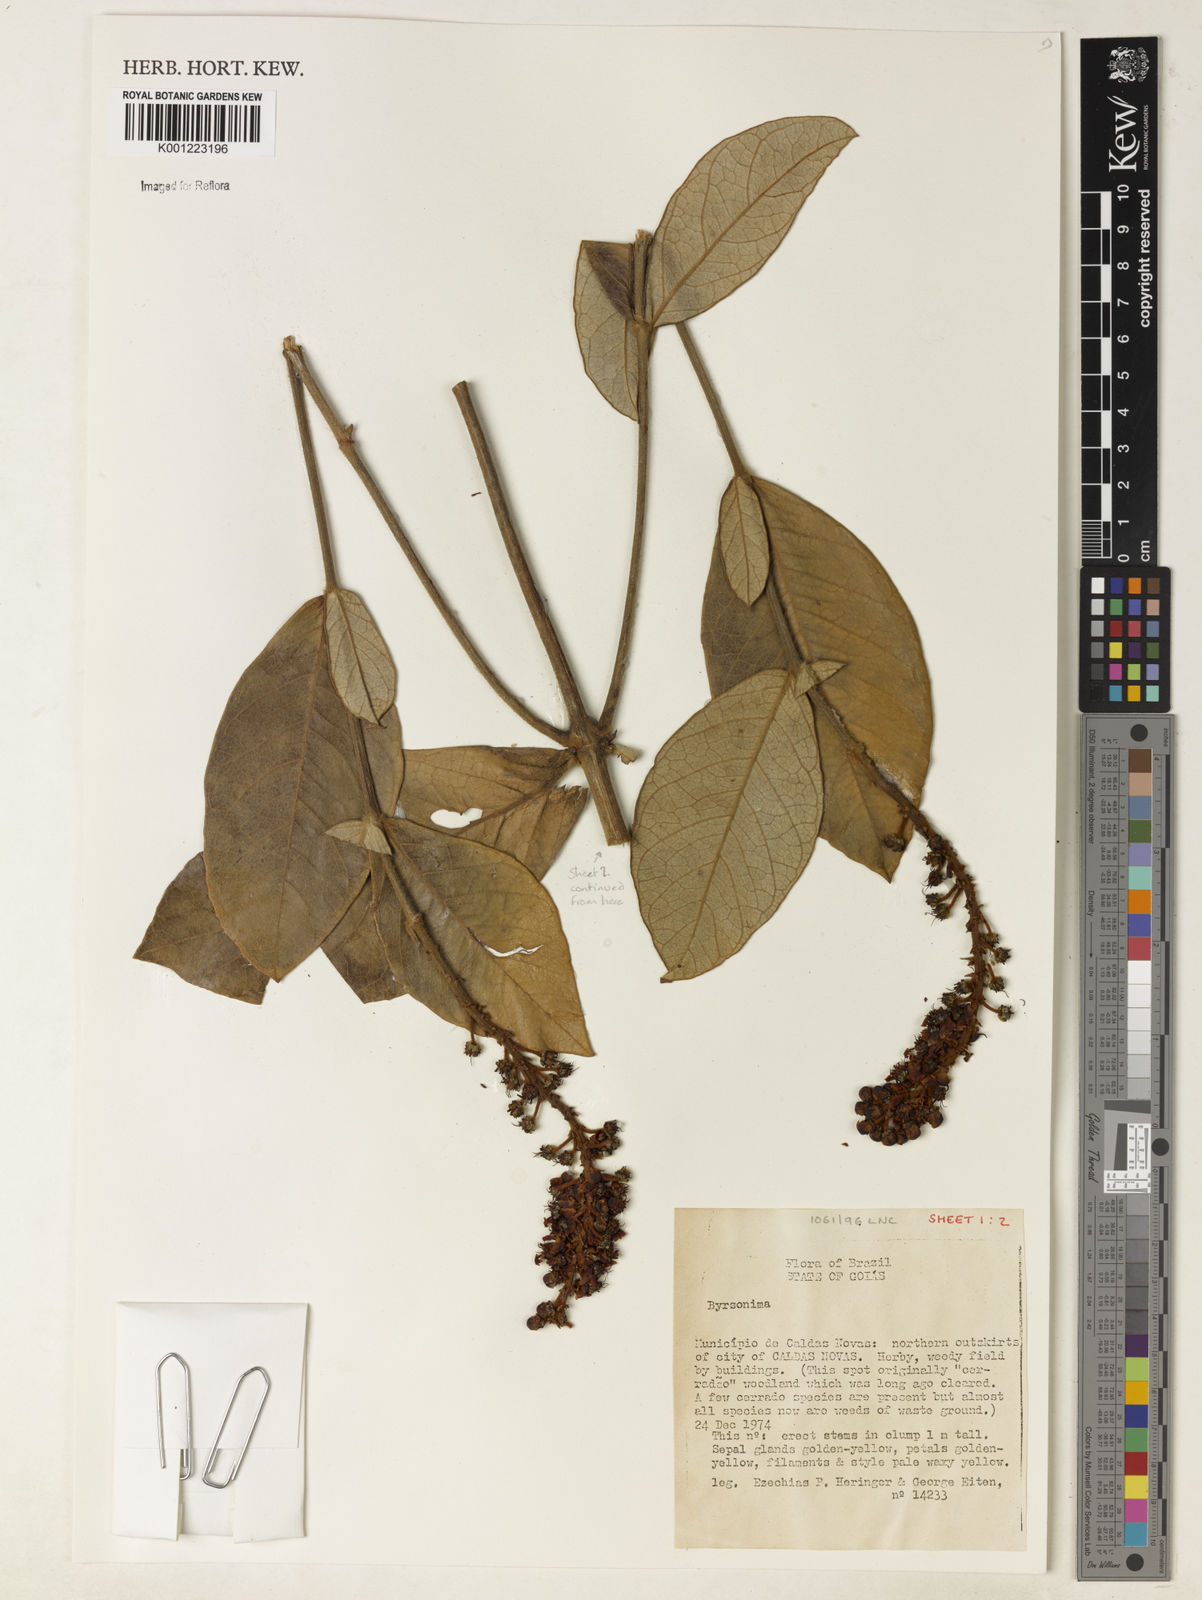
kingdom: Plantae
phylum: Tracheophyta
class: Magnoliopsida
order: Malpighiales
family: Malpighiaceae
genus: Byrsonima
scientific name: Byrsonima
